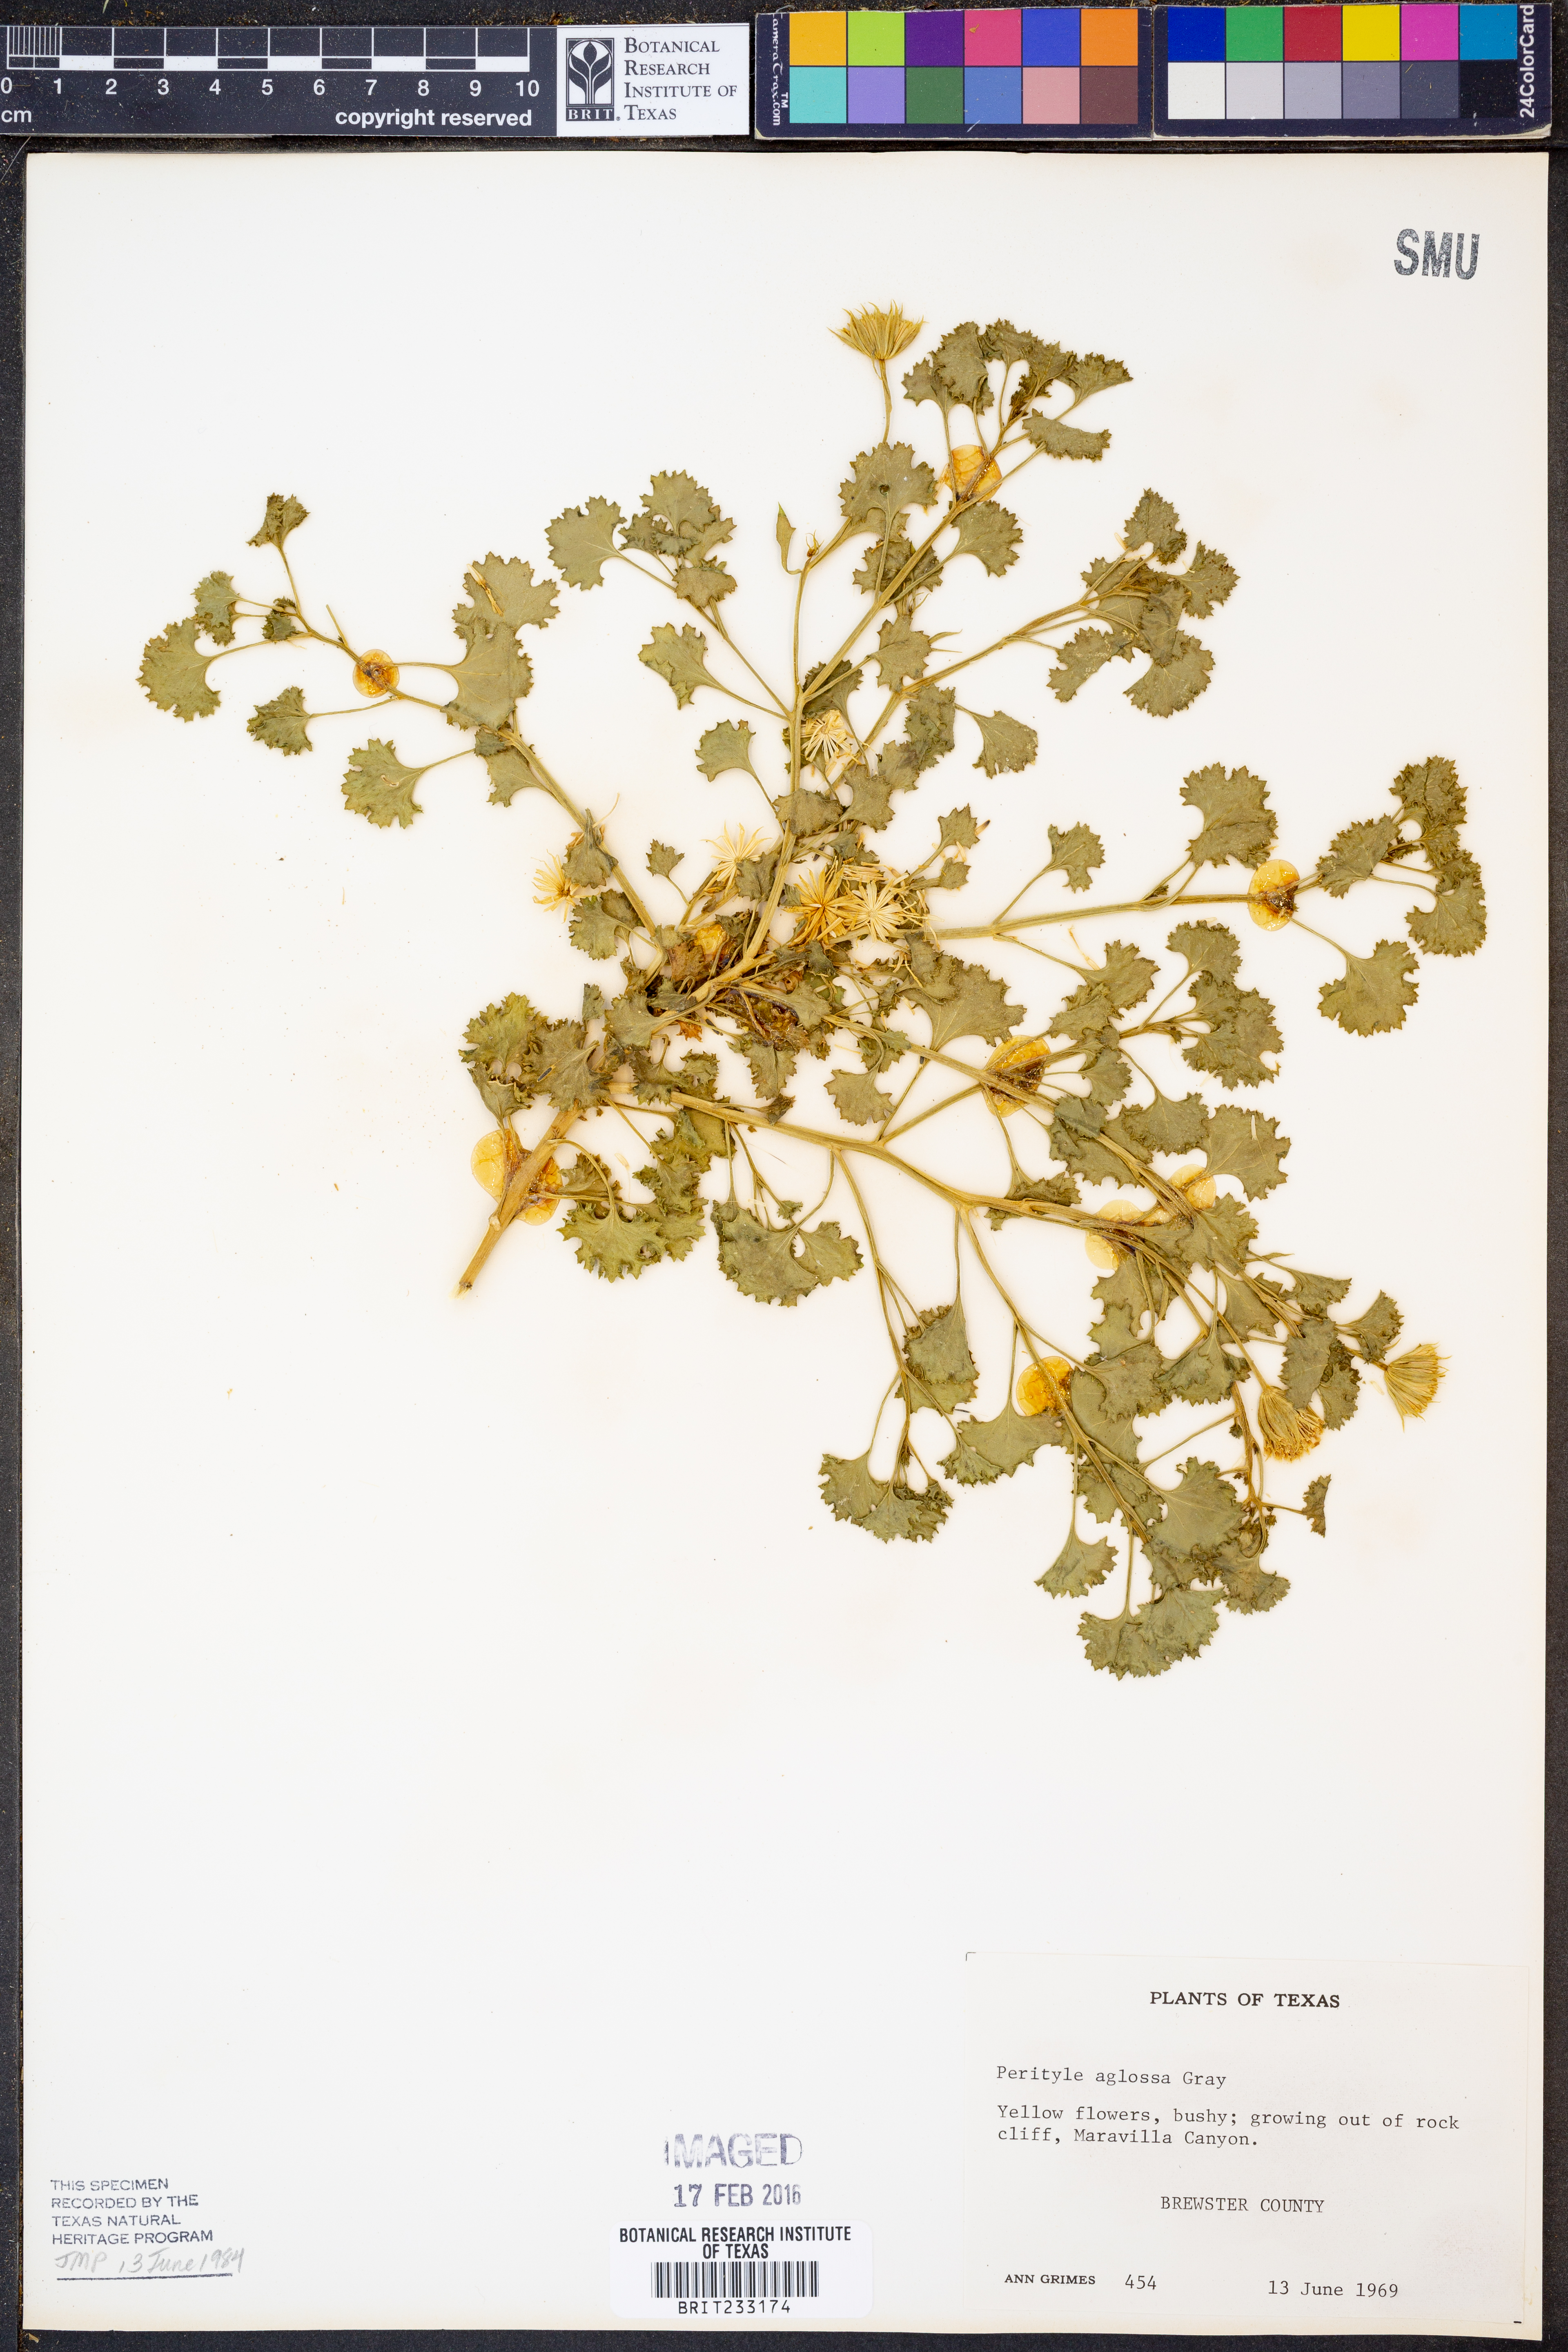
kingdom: Plantae
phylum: Tracheophyta
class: Magnoliopsida
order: Asterales
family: Asteraceae
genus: Laphamia
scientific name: Laphamia aglossa
